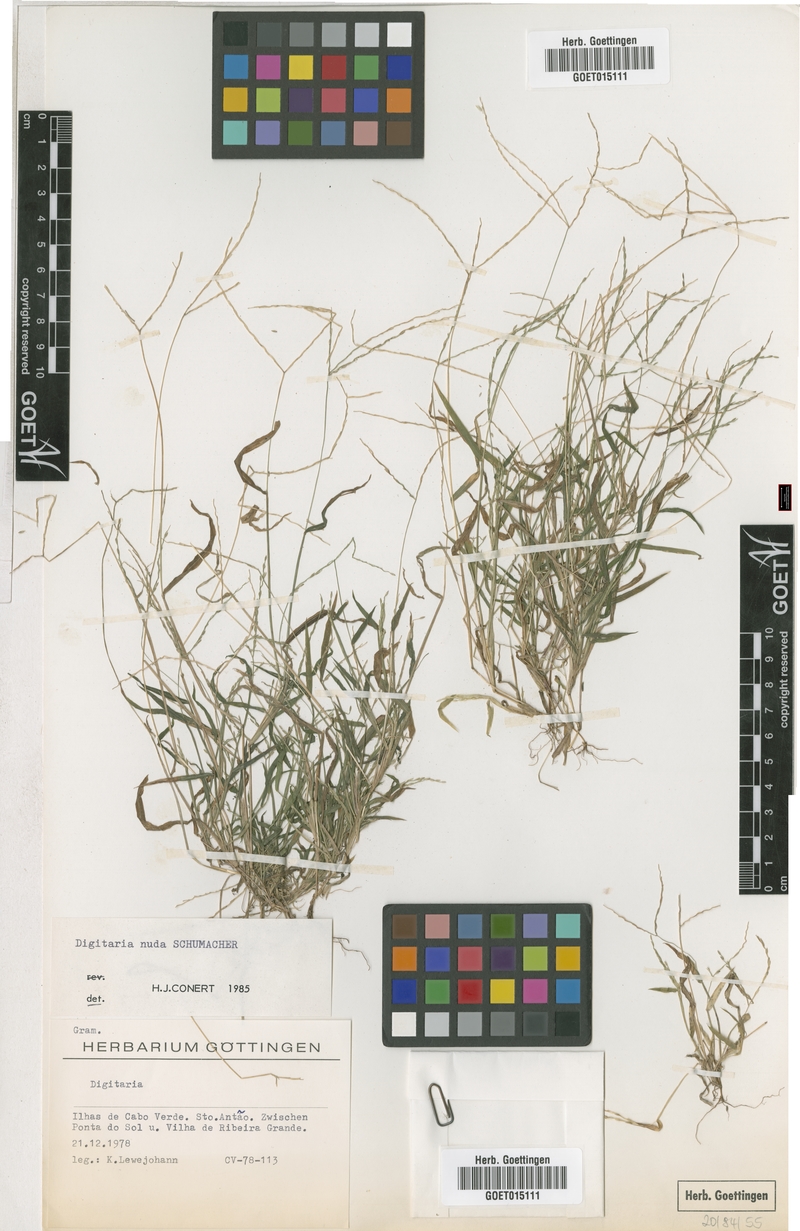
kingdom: Plantae
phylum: Tracheophyta
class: Liliopsida
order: Poales
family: Poaceae
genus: Digitaria
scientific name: Digitaria nuda
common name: Naked crabgrass
